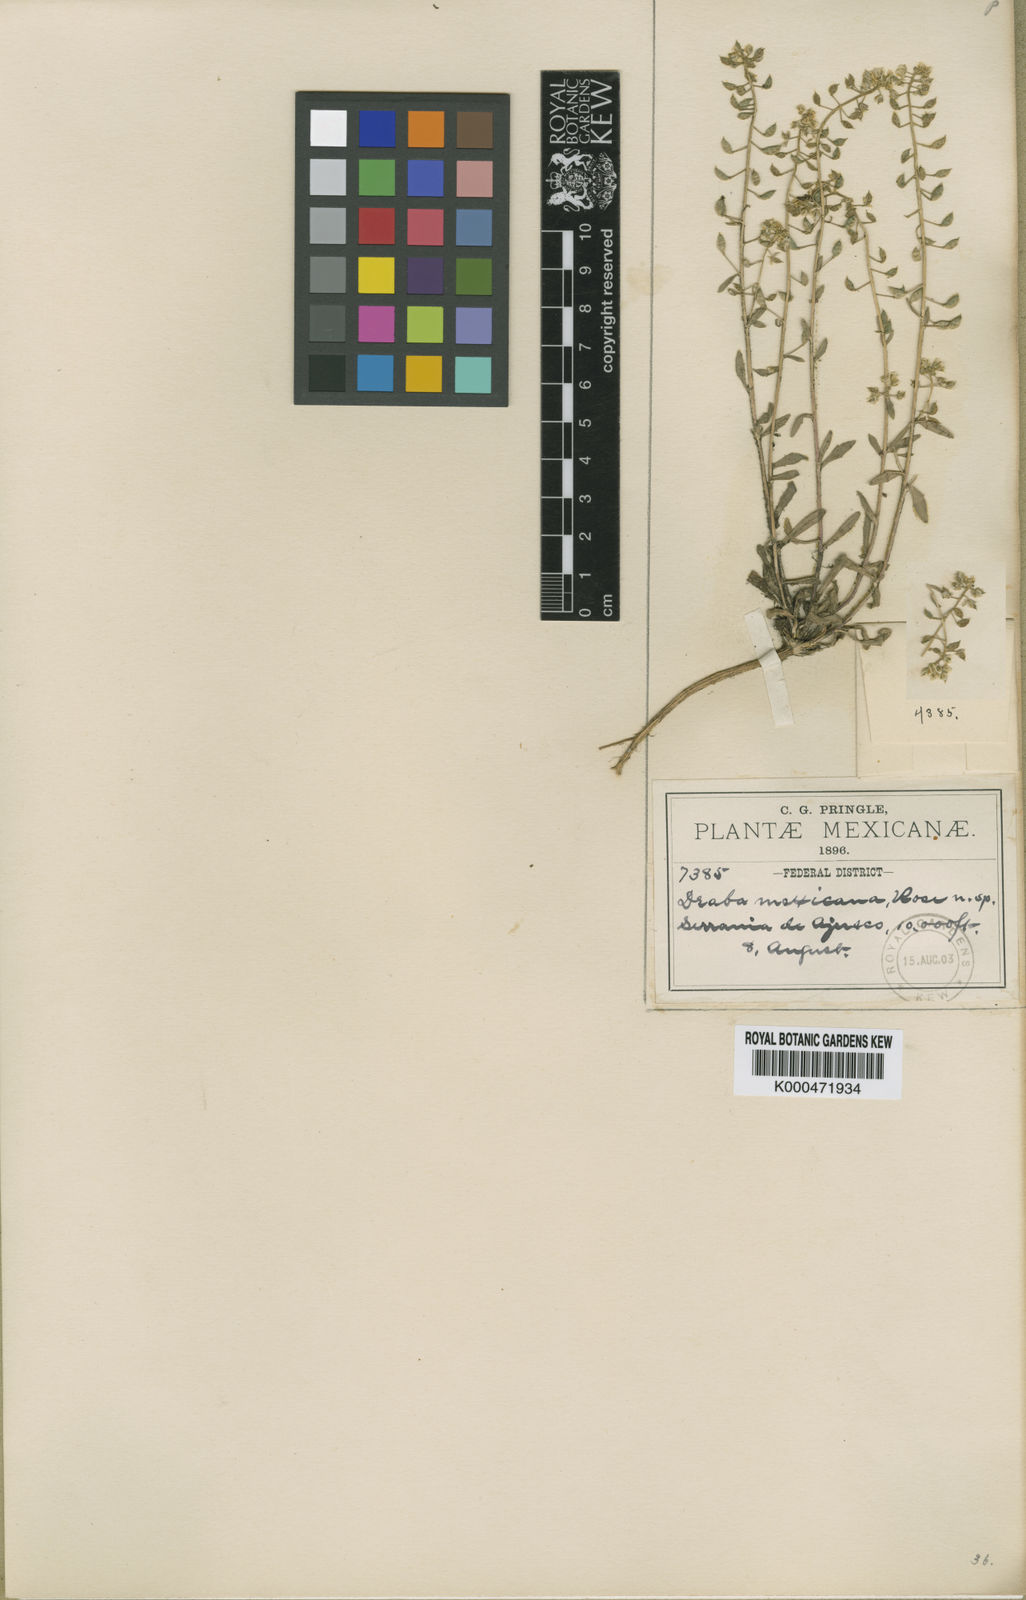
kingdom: Plantae
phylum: Tracheophyta
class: Magnoliopsida
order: Brassicales
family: Brassicaceae
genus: Draba
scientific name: Draba jorullensis
